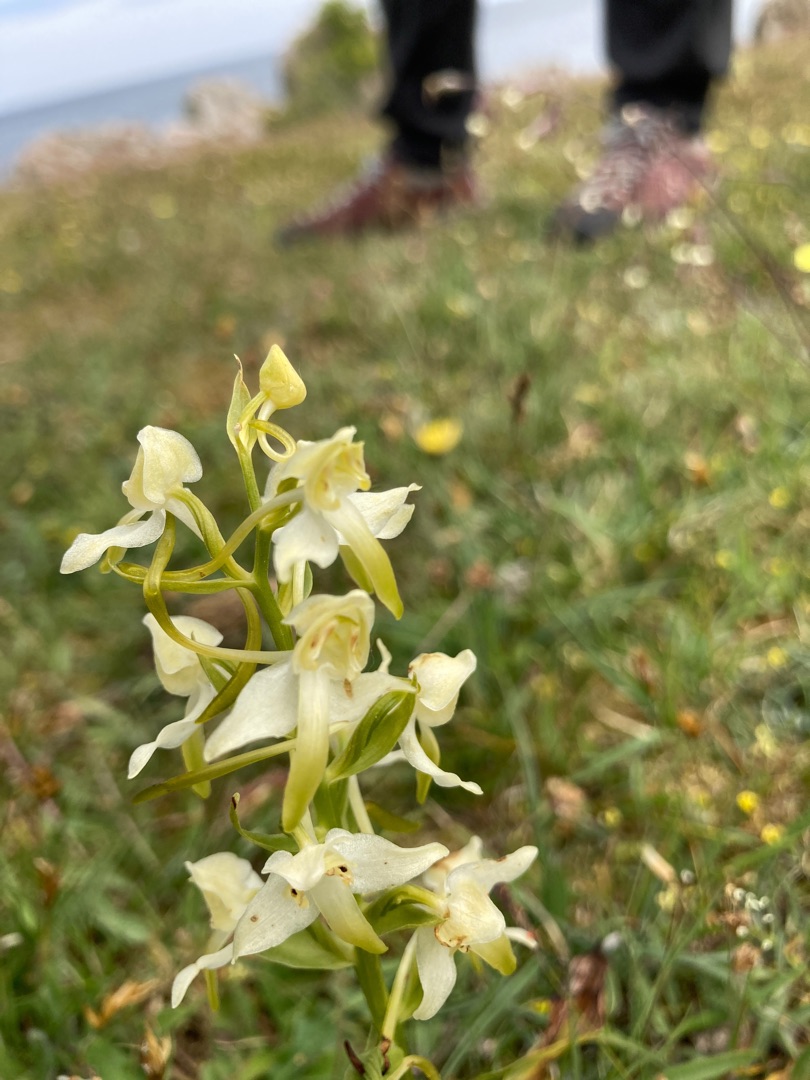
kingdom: Plantae
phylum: Tracheophyta
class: Liliopsida
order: Asparagales
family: Orchidaceae
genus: Platanthera
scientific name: Platanthera chlorantha
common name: Skov-gøgelilje
